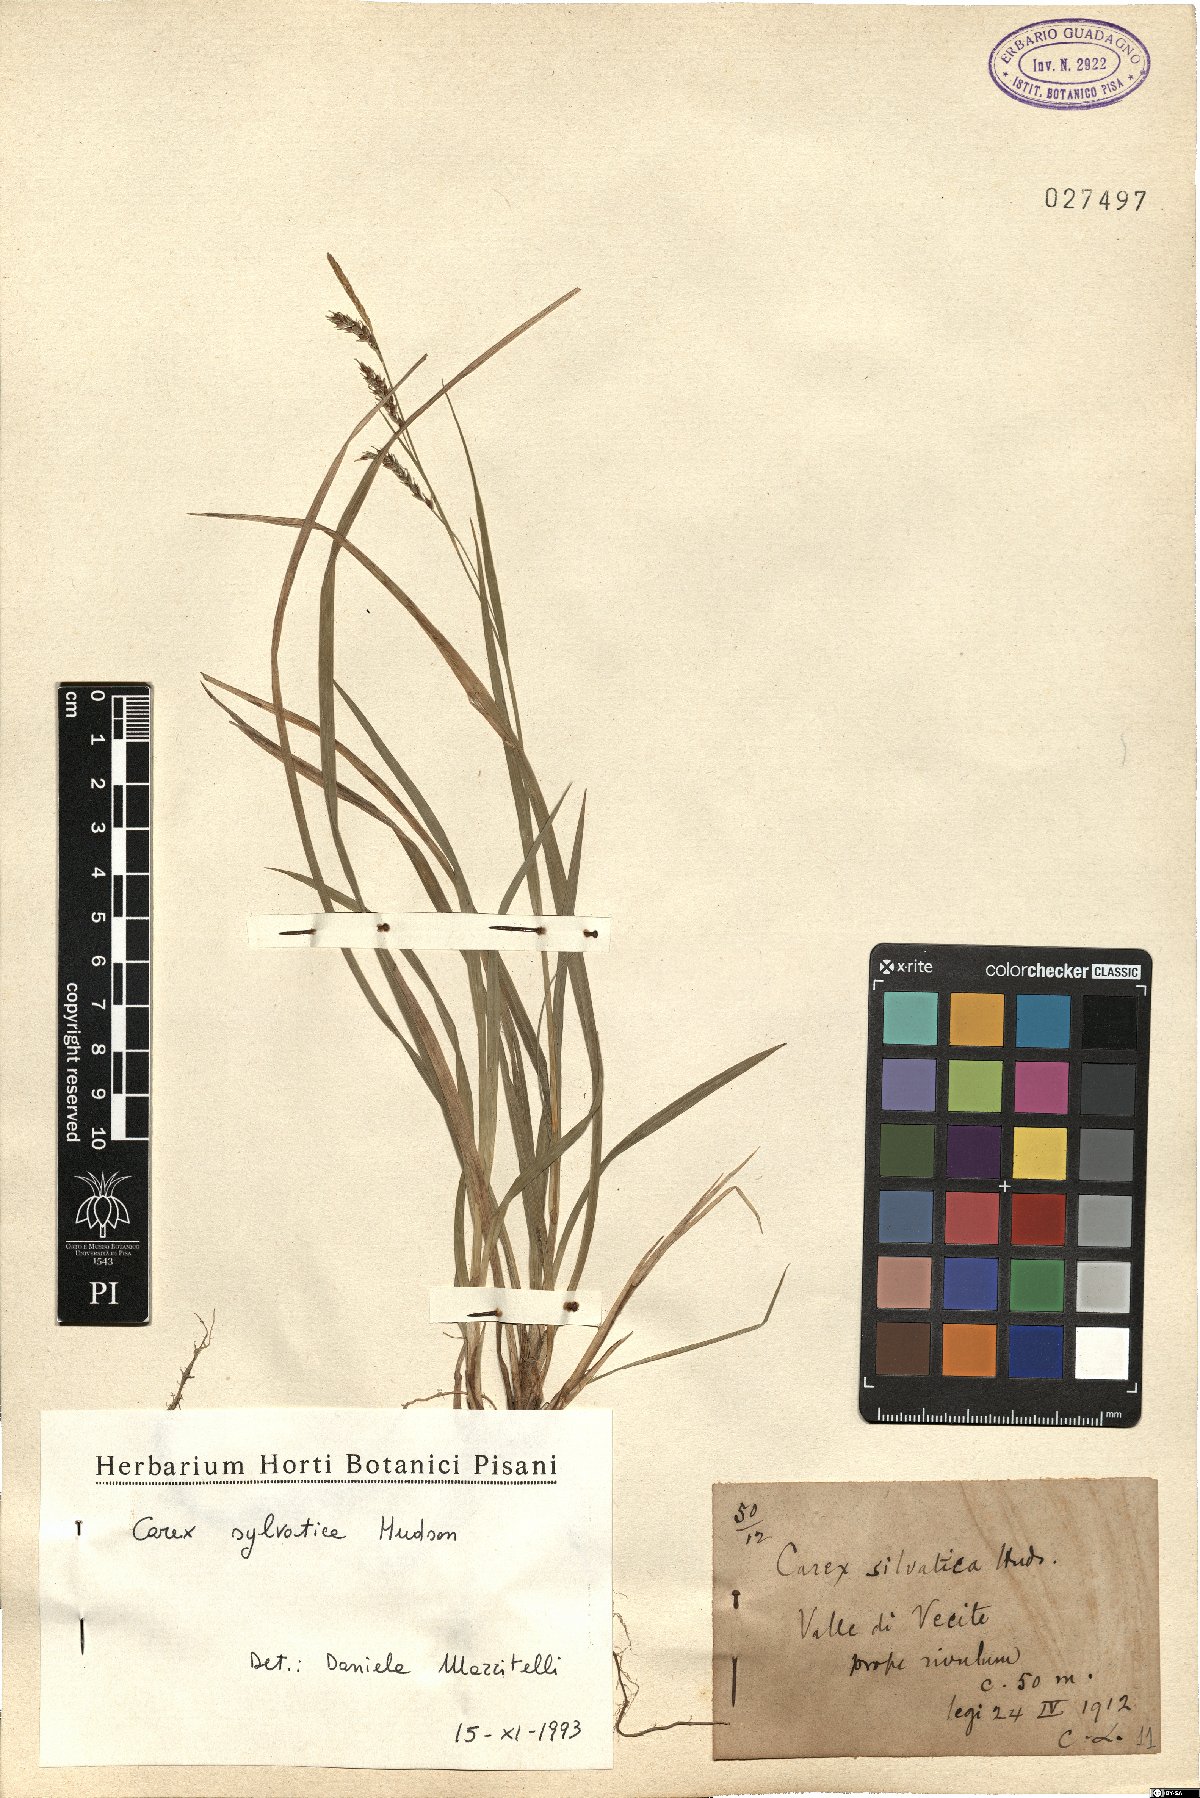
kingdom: Plantae
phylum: Tracheophyta
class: Liliopsida
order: Poales
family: Cyperaceae
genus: Carex
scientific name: Carex sylvatica
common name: Wood-sedge
